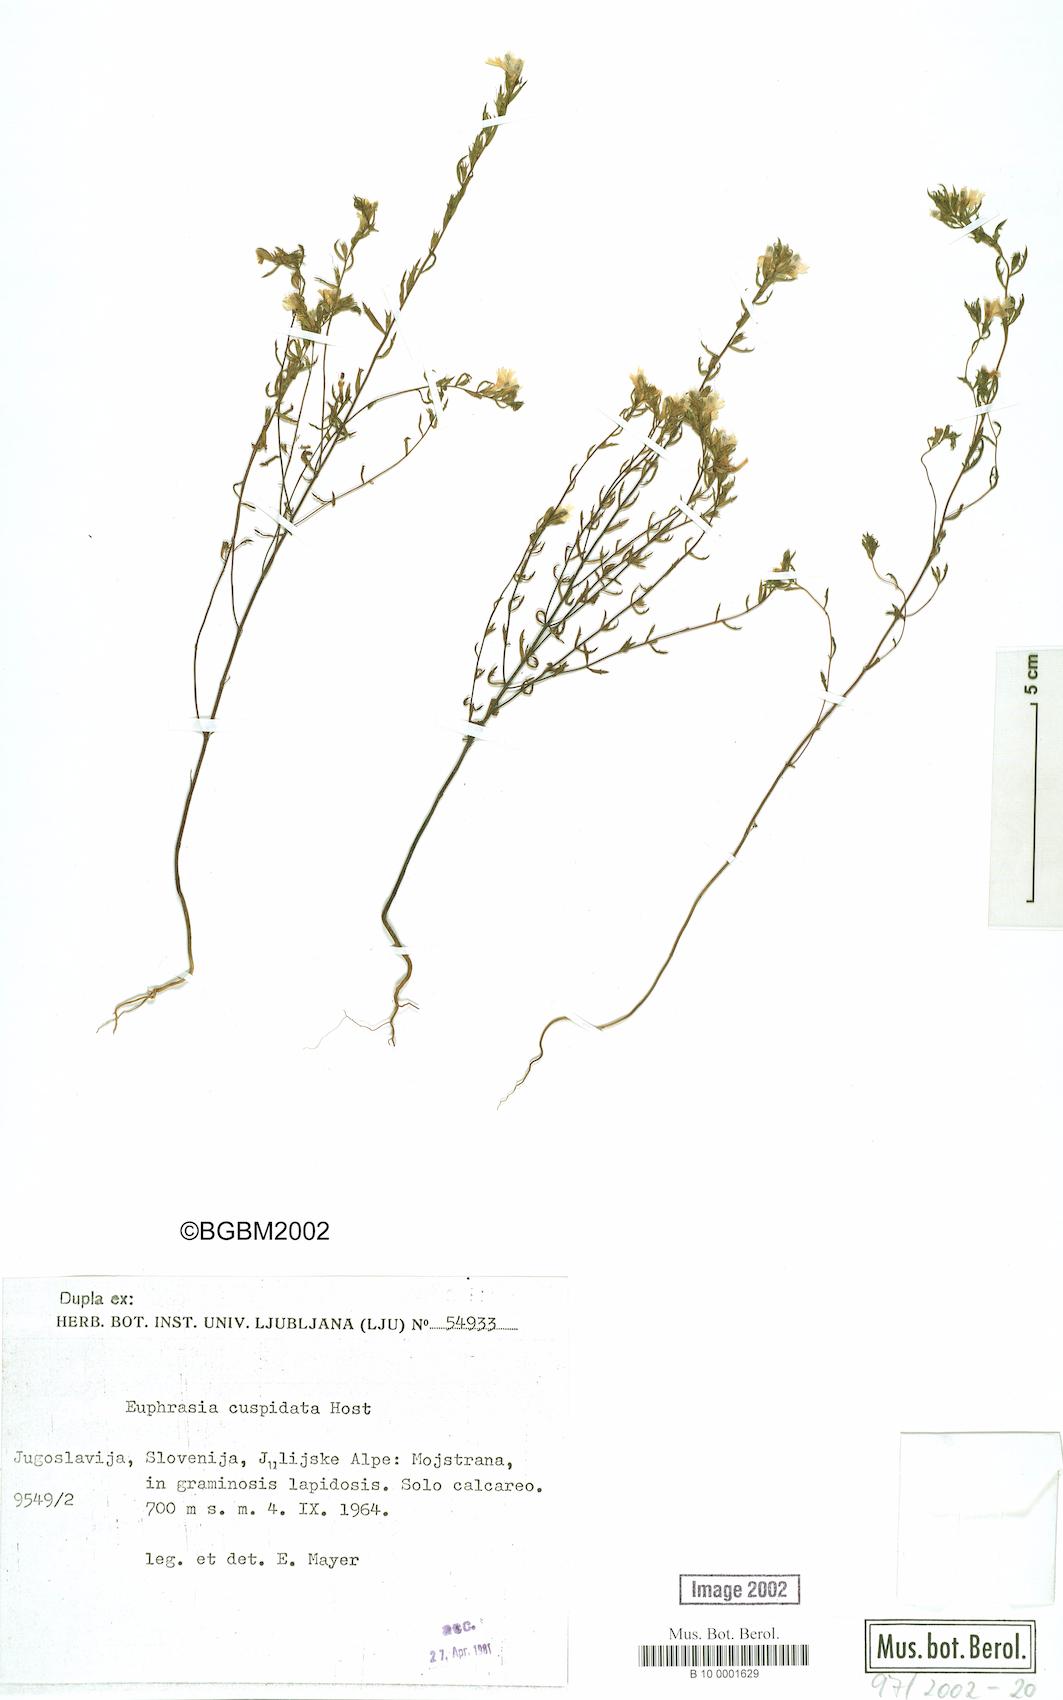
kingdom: Plantae
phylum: Tracheophyta
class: Magnoliopsida
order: Lamiales
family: Orobanchaceae
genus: Euphrasia
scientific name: Euphrasia cuspidata
